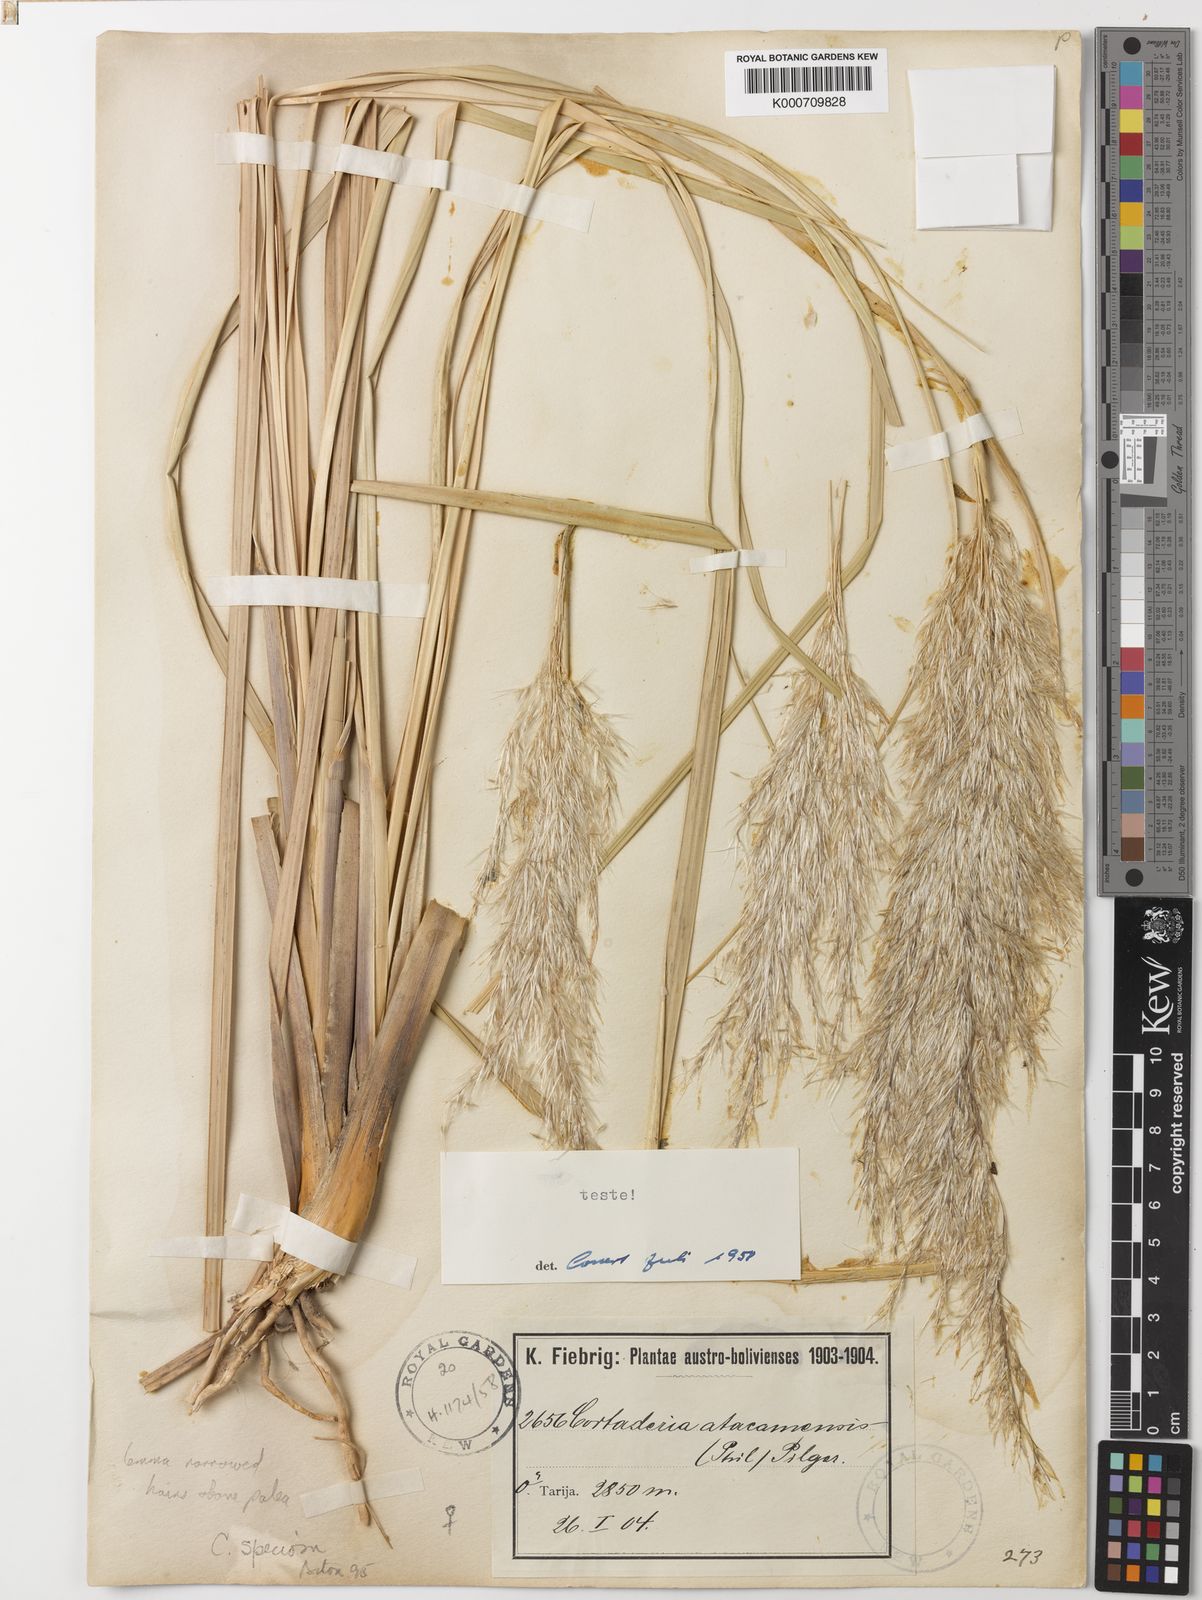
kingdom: Plantae
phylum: Tracheophyta
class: Liliopsida
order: Poales
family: Poaceae
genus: Cortaderia
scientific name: Cortaderia speciosa
